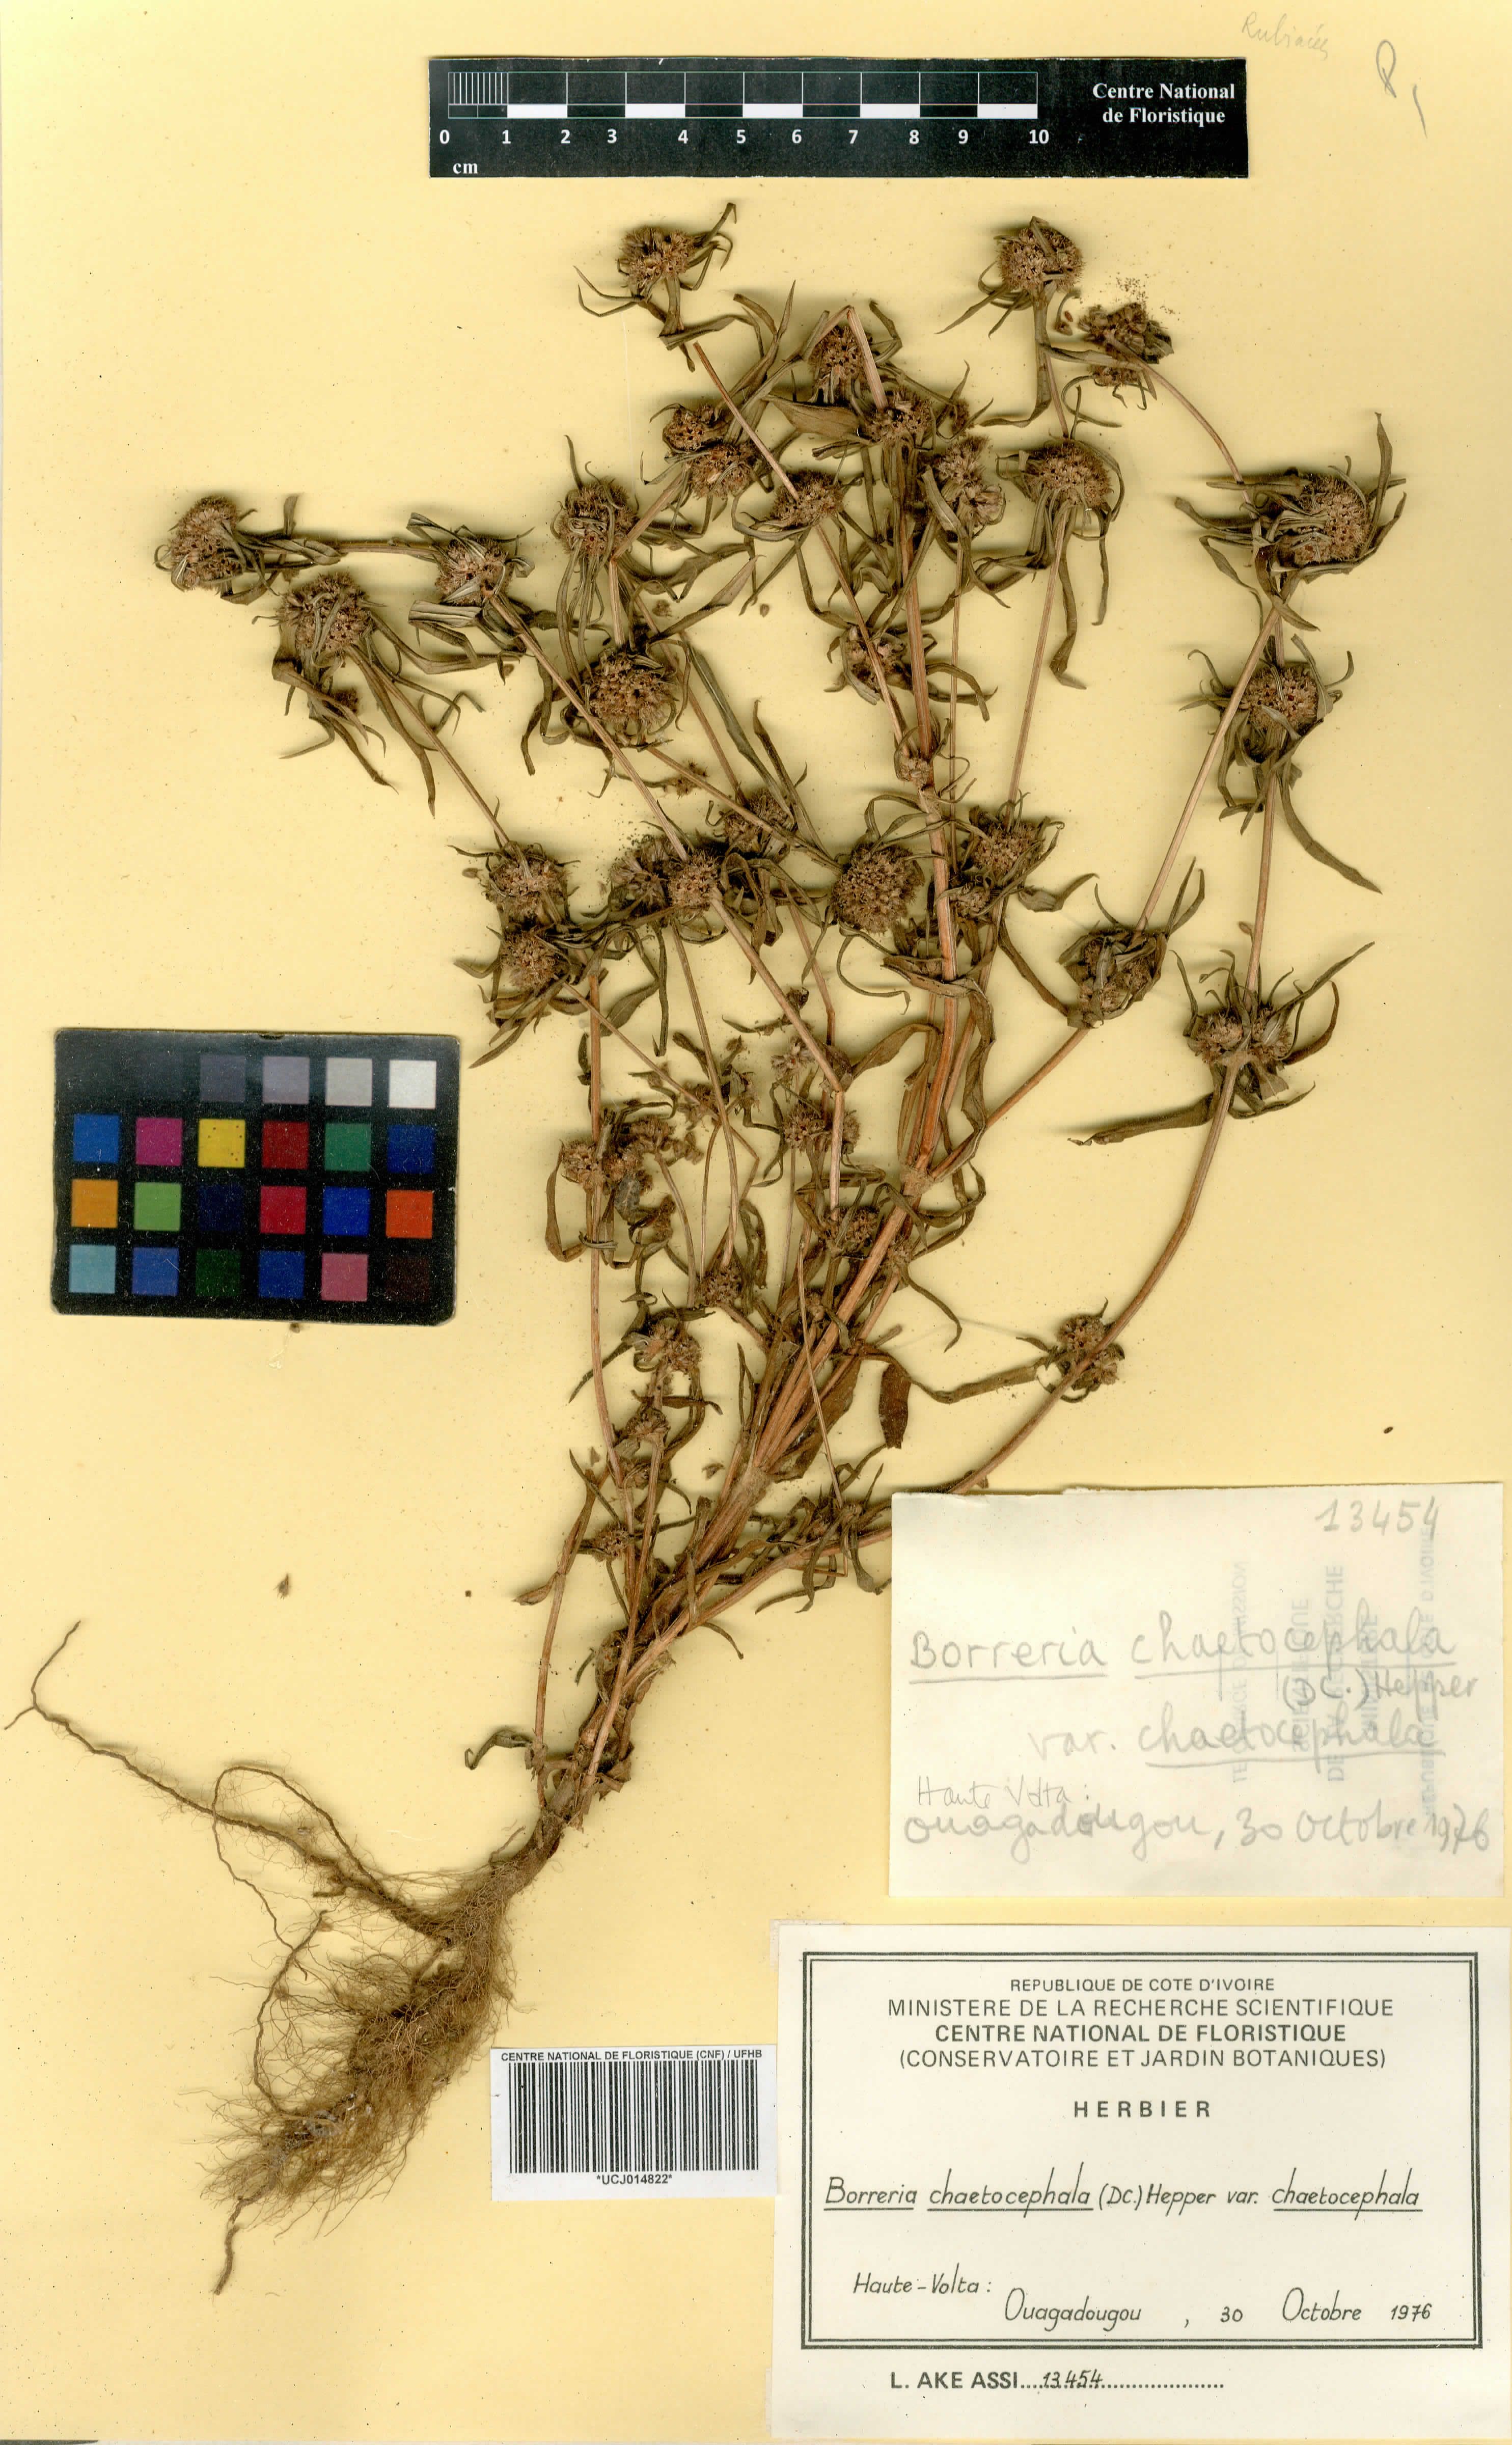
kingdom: Plantae
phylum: Tracheophyta
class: Magnoliopsida
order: Gentianales
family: Rubiaceae
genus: Spermacoce
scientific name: Spermacoce chaetocephala
